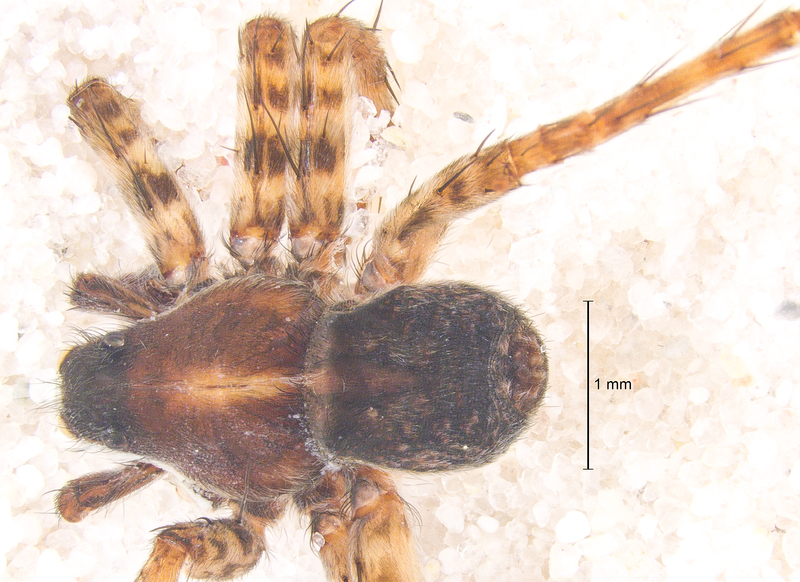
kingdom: Animalia
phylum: Arthropoda
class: Arachnida
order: Araneae
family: Lycosidae
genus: Pardosa
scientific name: Pardosa prativaga
